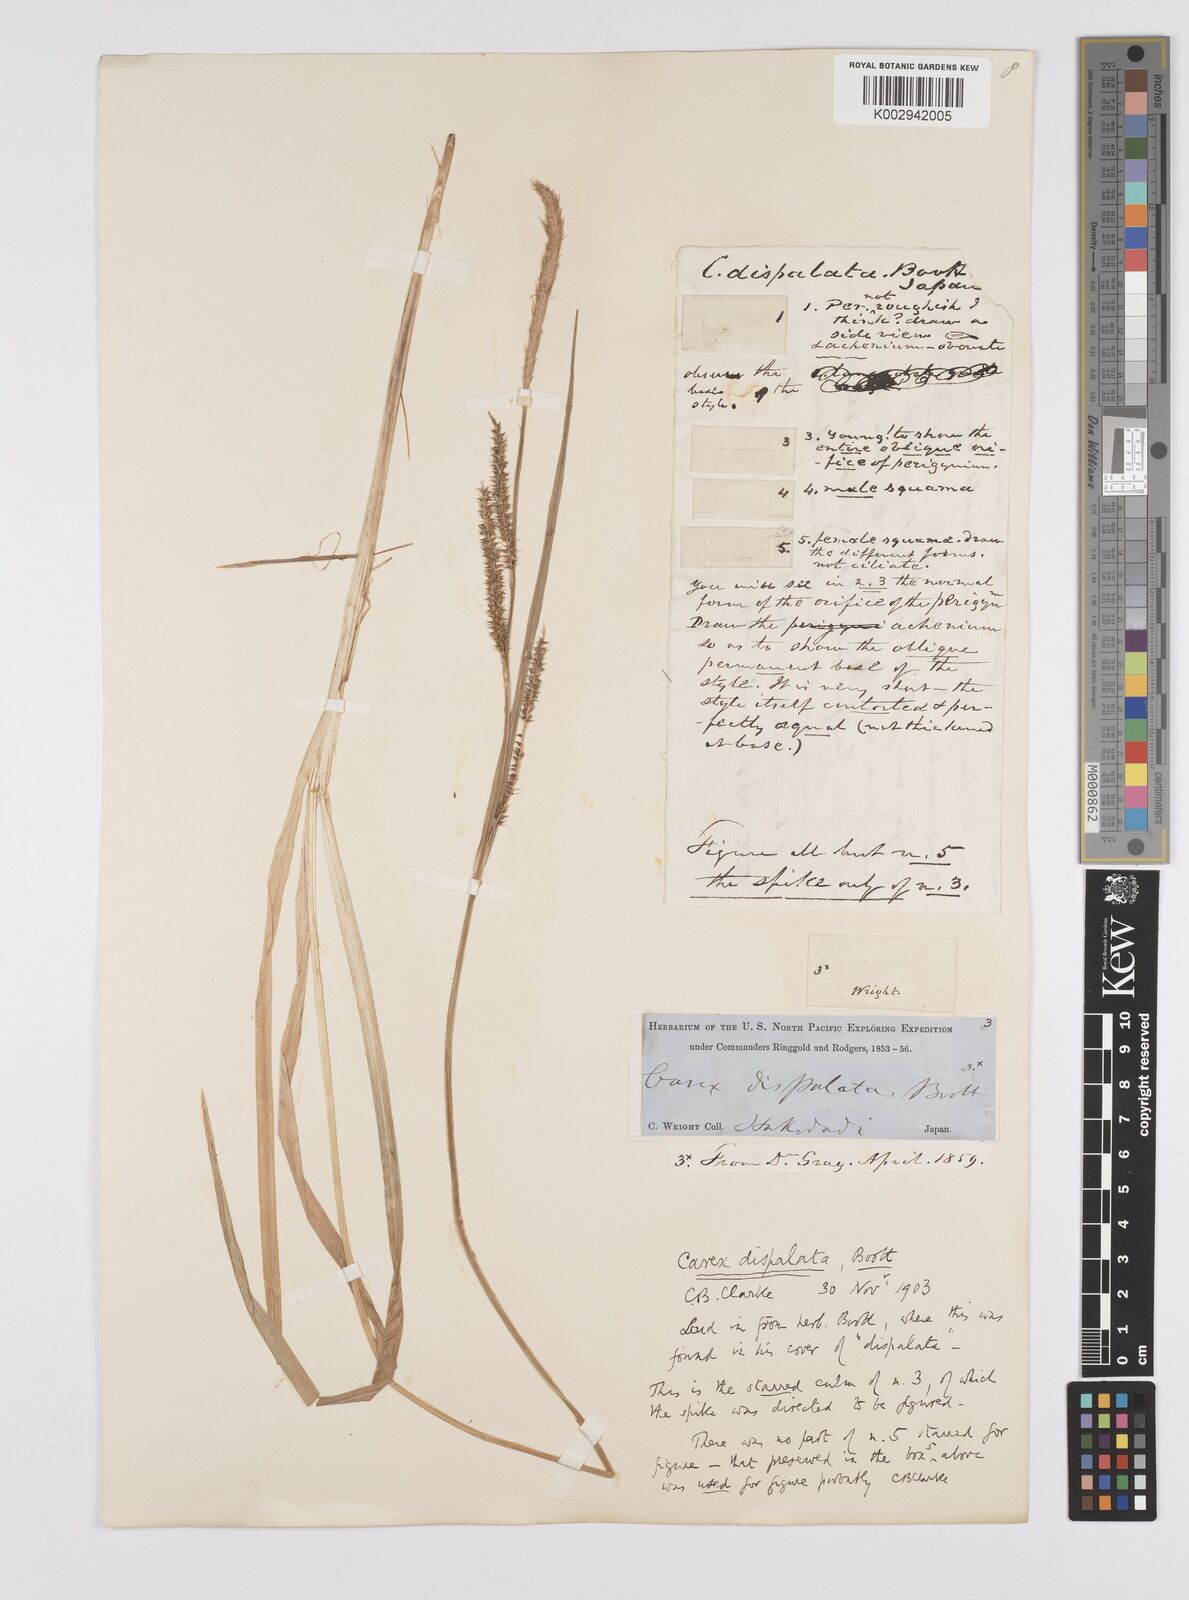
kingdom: Plantae
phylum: Tracheophyta
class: Liliopsida
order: Poales
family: Cyperaceae
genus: Carex
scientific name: Carex dispalata
